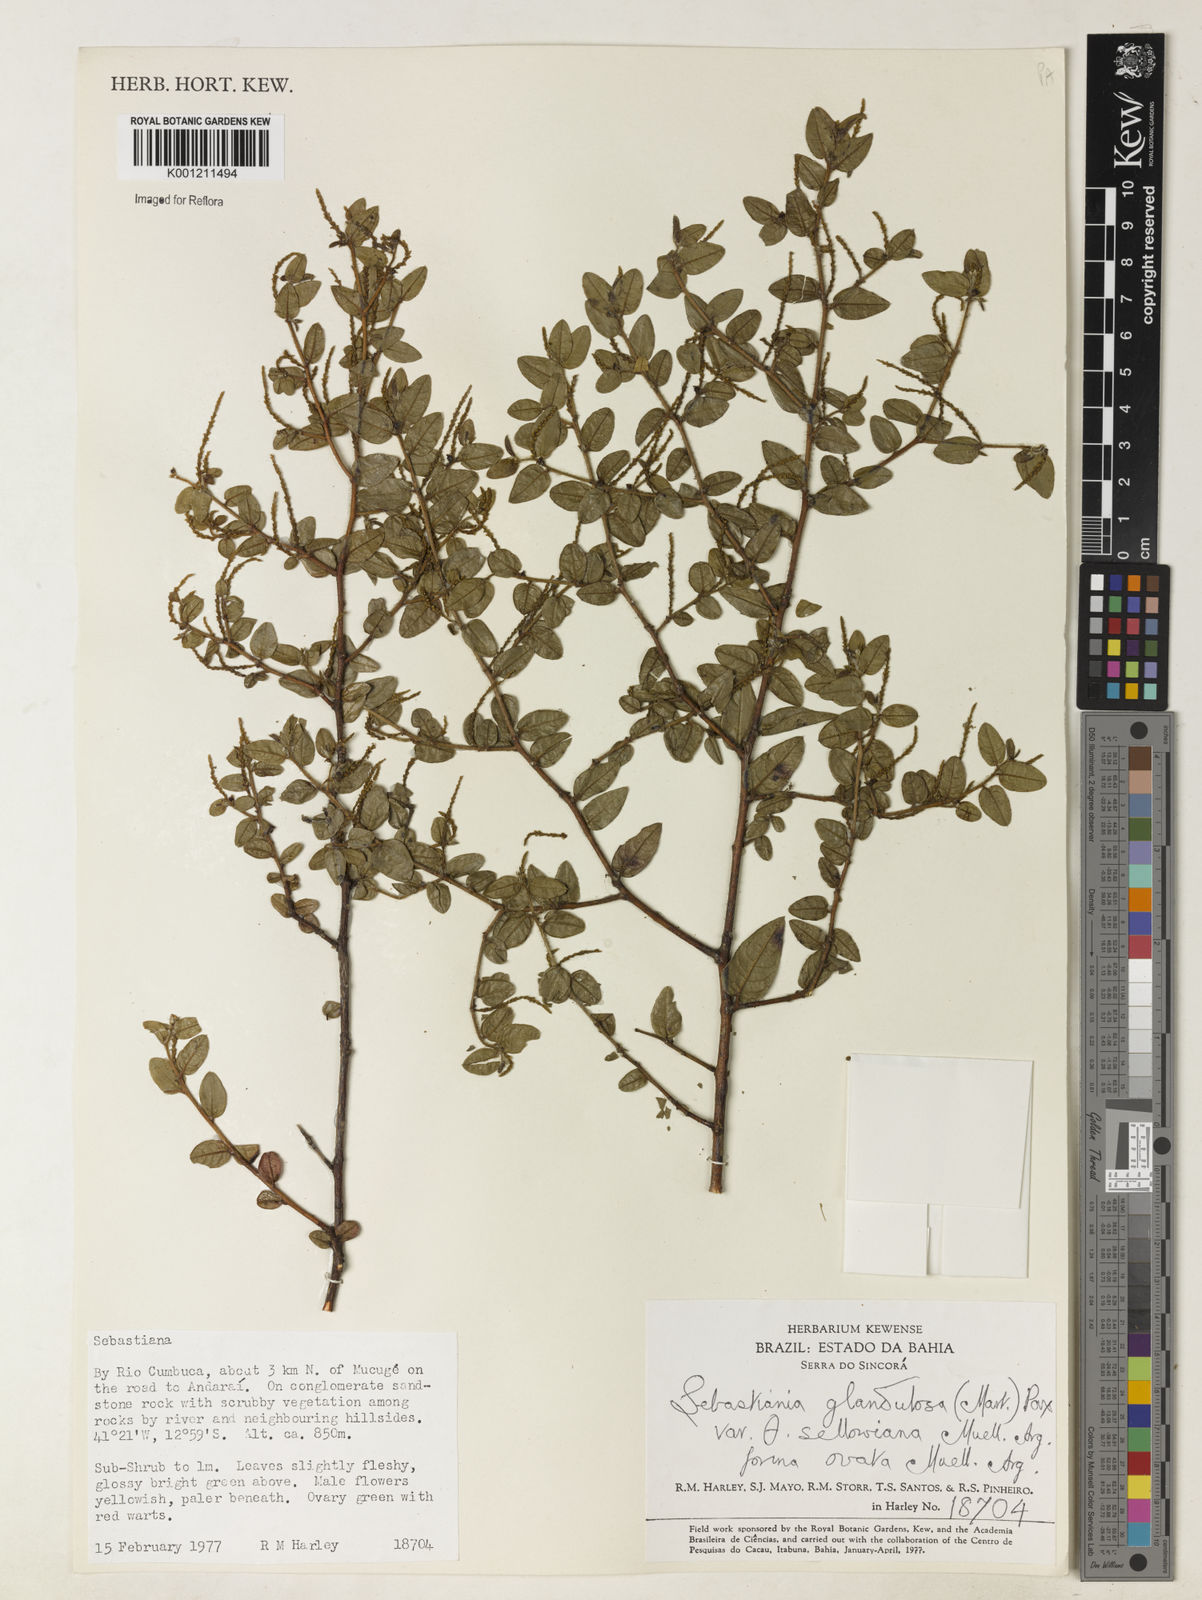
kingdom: Plantae
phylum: Tracheophyta
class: Magnoliopsida
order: Malpighiales
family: Euphorbiaceae
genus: Microstachys
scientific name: Microstachys glandulosa
